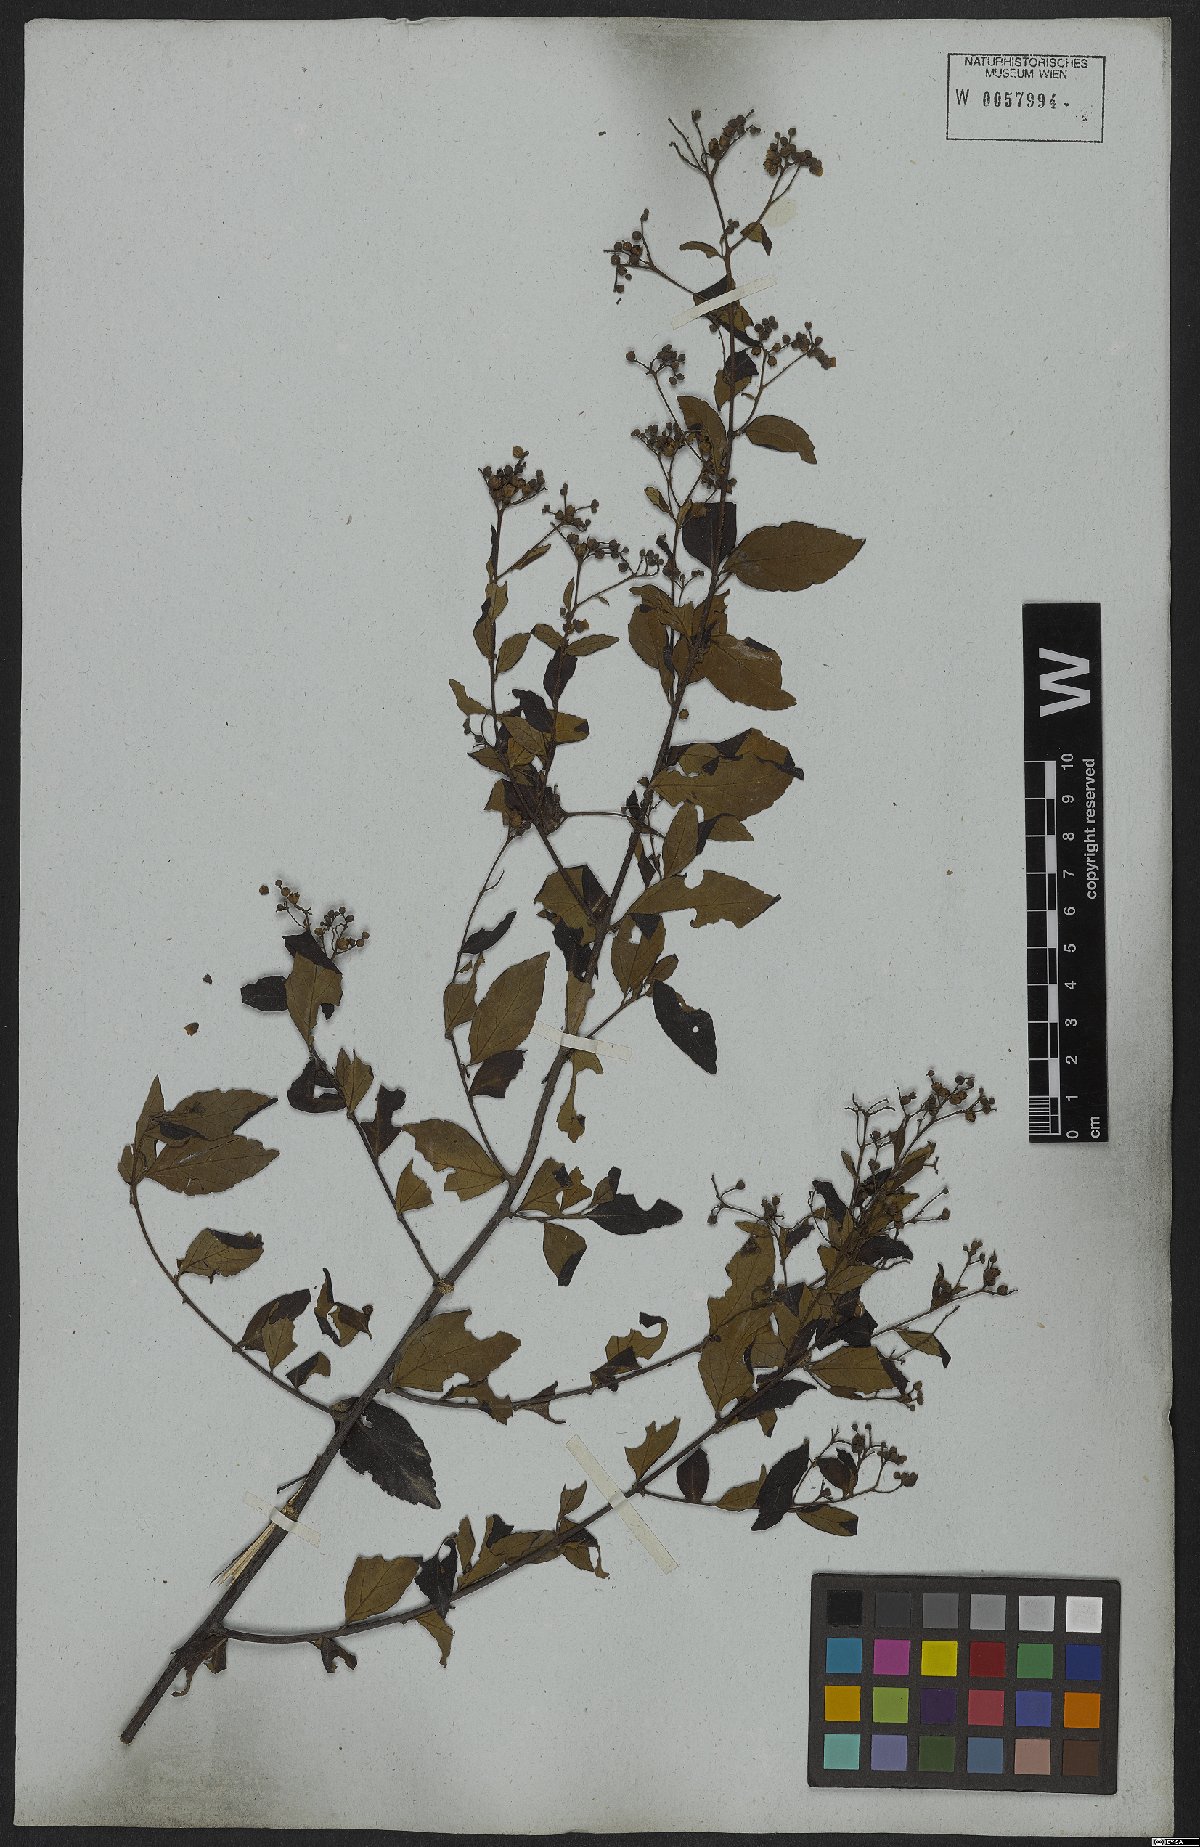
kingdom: Plantae
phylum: Tracheophyta
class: Magnoliopsida
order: Boraginales
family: Cordiaceae
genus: Varronia
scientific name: Varronia discolor
